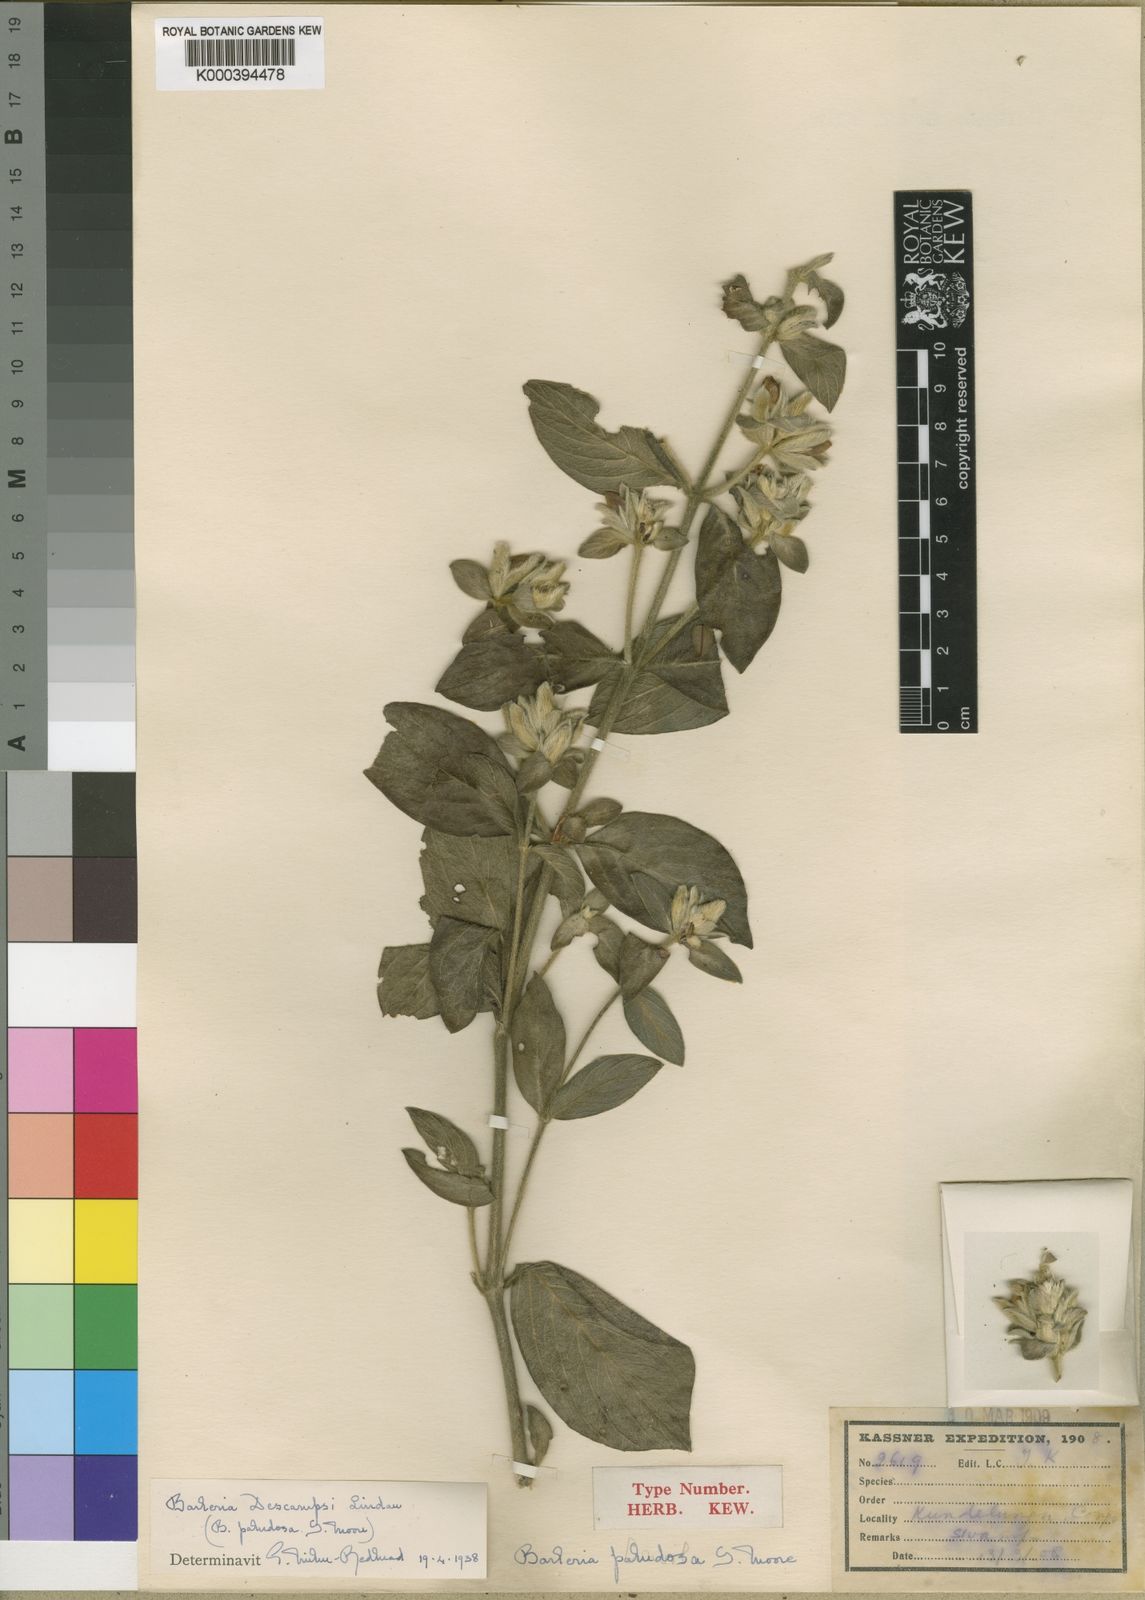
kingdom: Plantae
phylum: Tracheophyta
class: Magnoliopsida
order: Lamiales
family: Acanthaceae
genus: Barleria
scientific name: Barleria descampsii
